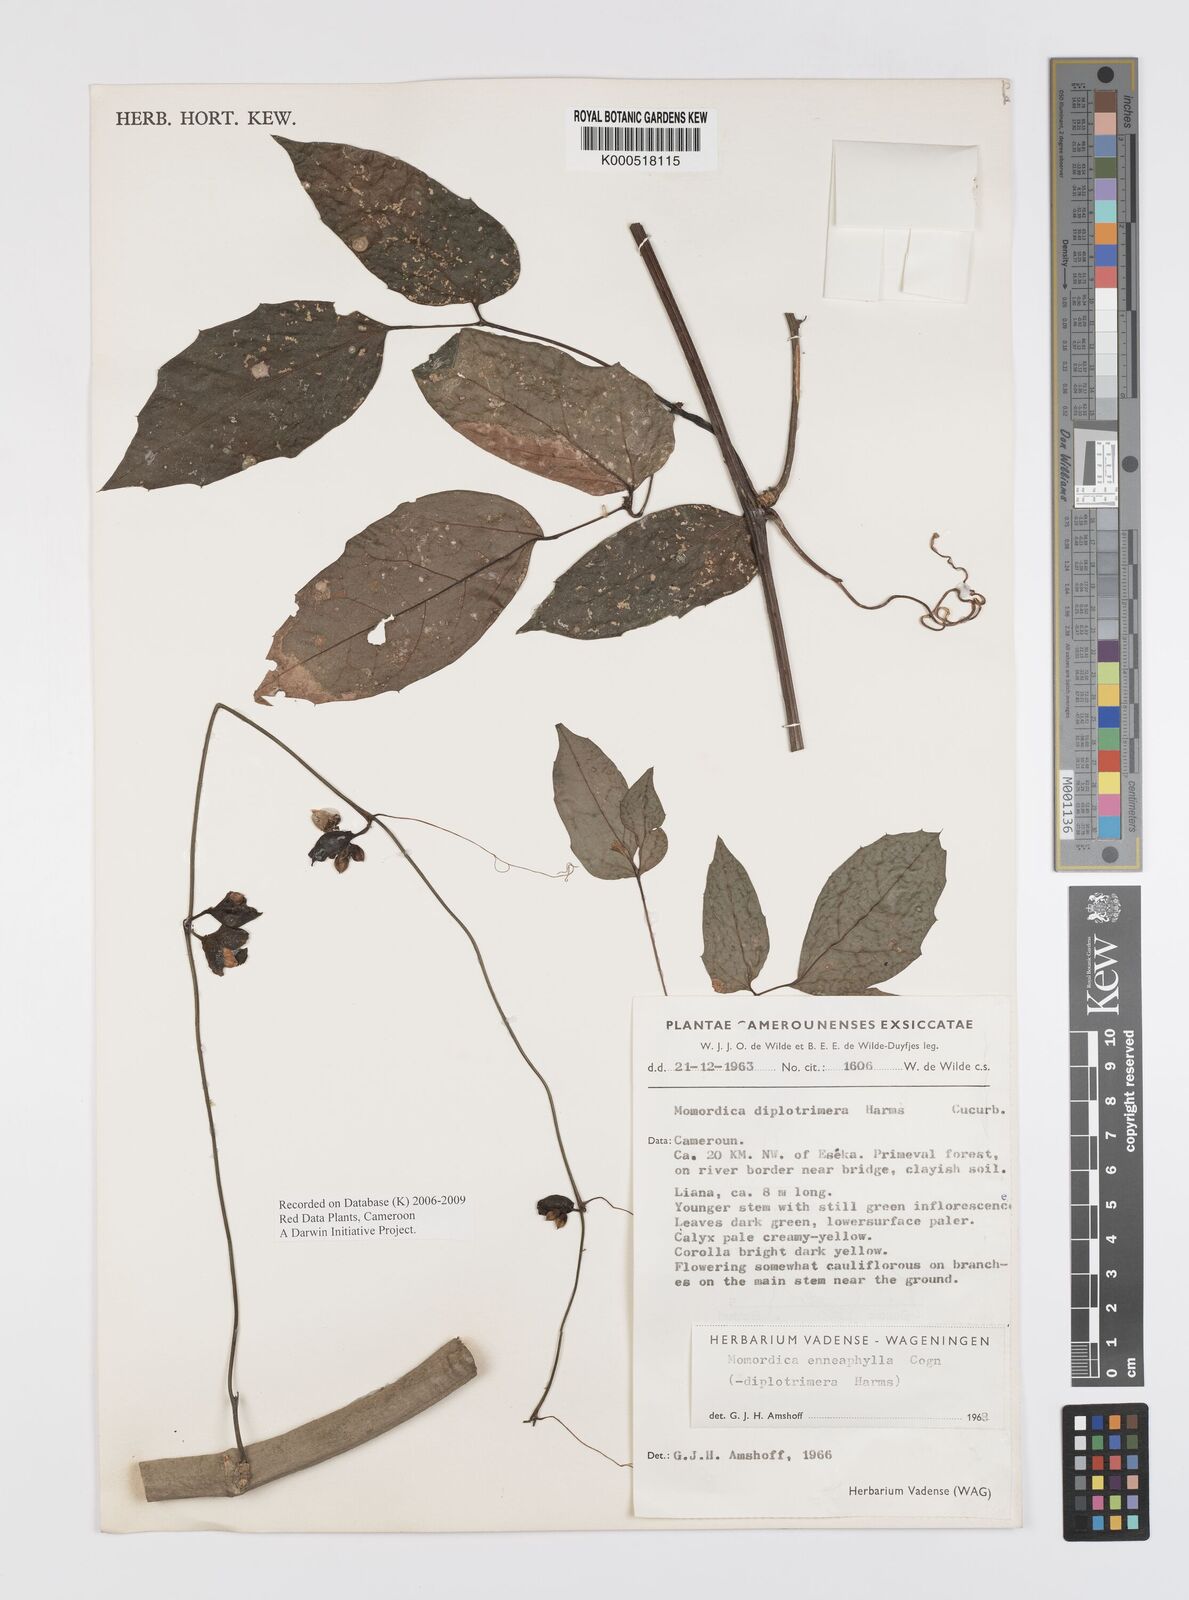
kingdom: Plantae
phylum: Tracheophyta
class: Magnoliopsida
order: Cucurbitales
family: Cucurbitaceae
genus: Momordica
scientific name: Momordica enneaphylla
